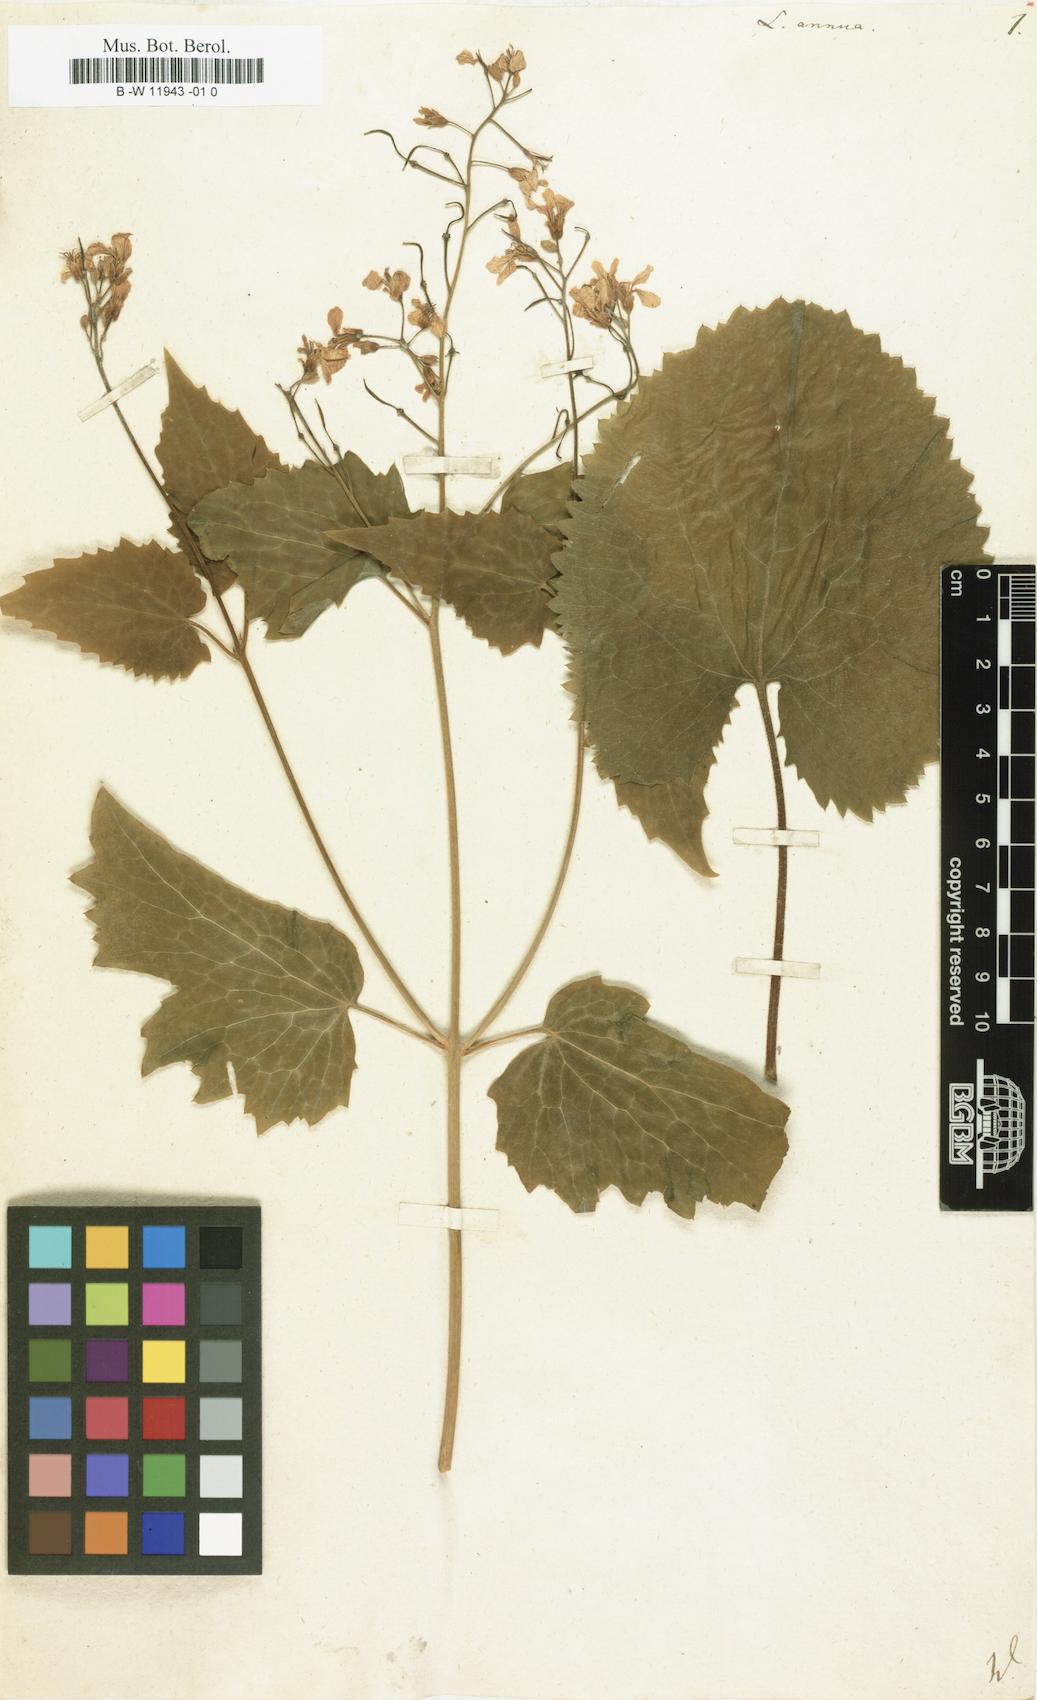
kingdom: Plantae
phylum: Tracheophyta
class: Magnoliopsida
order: Brassicales
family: Brassicaceae
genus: Lunaria
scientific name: Lunaria annua
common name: Honesty
